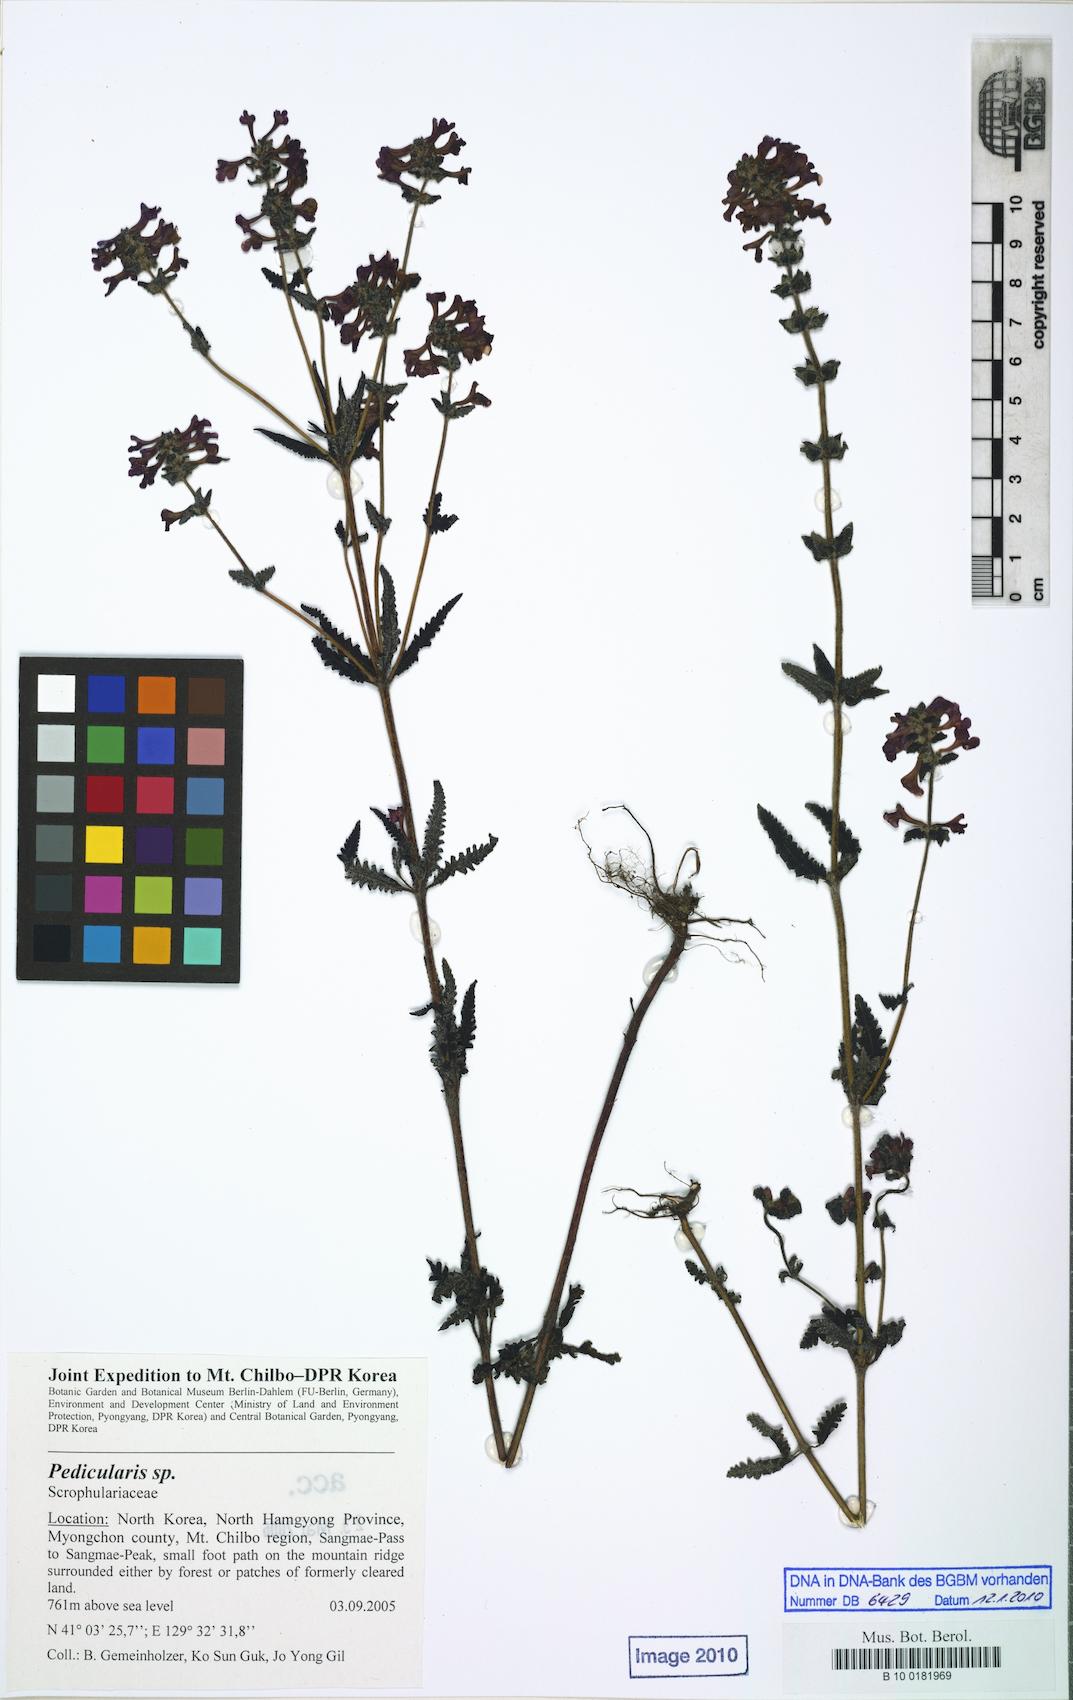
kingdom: Plantae
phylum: Tracheophyta
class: Magnoliopsida
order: Lamiales
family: Orobanchaceae
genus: Pedicularis
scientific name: Pedicularis
